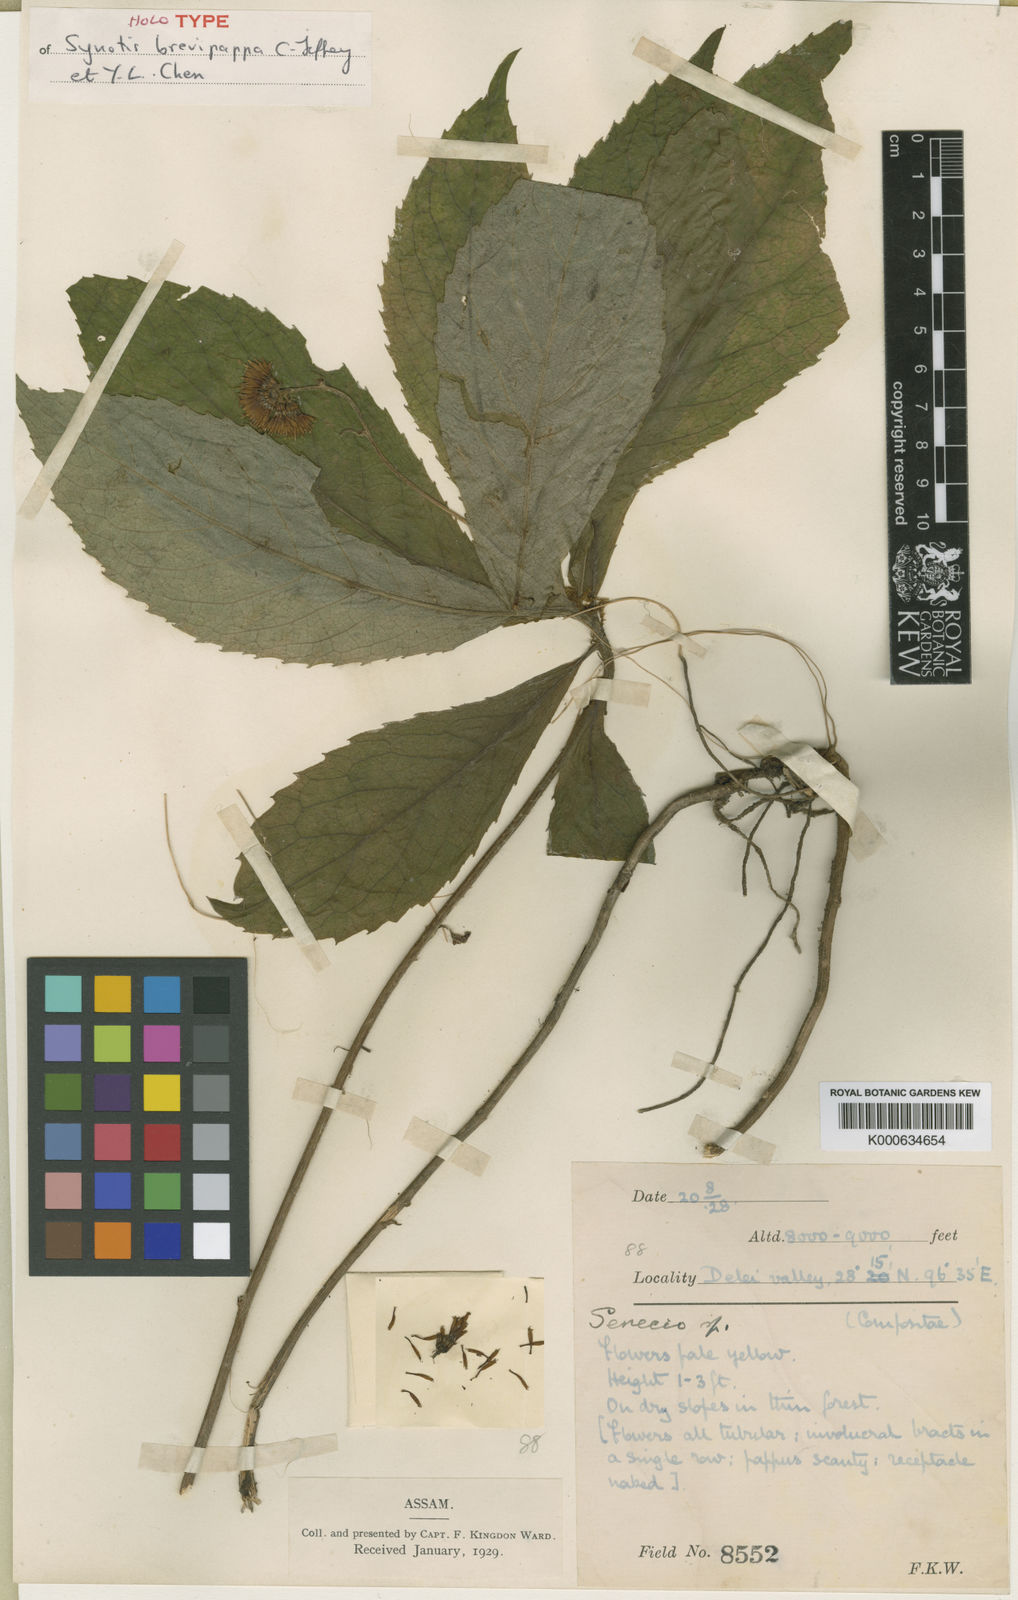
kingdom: Plantae
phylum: Tracheophyta
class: Magnoliopsida
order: Asterales
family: Asteraceae
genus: Synotis
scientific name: Synotis brevipappa
